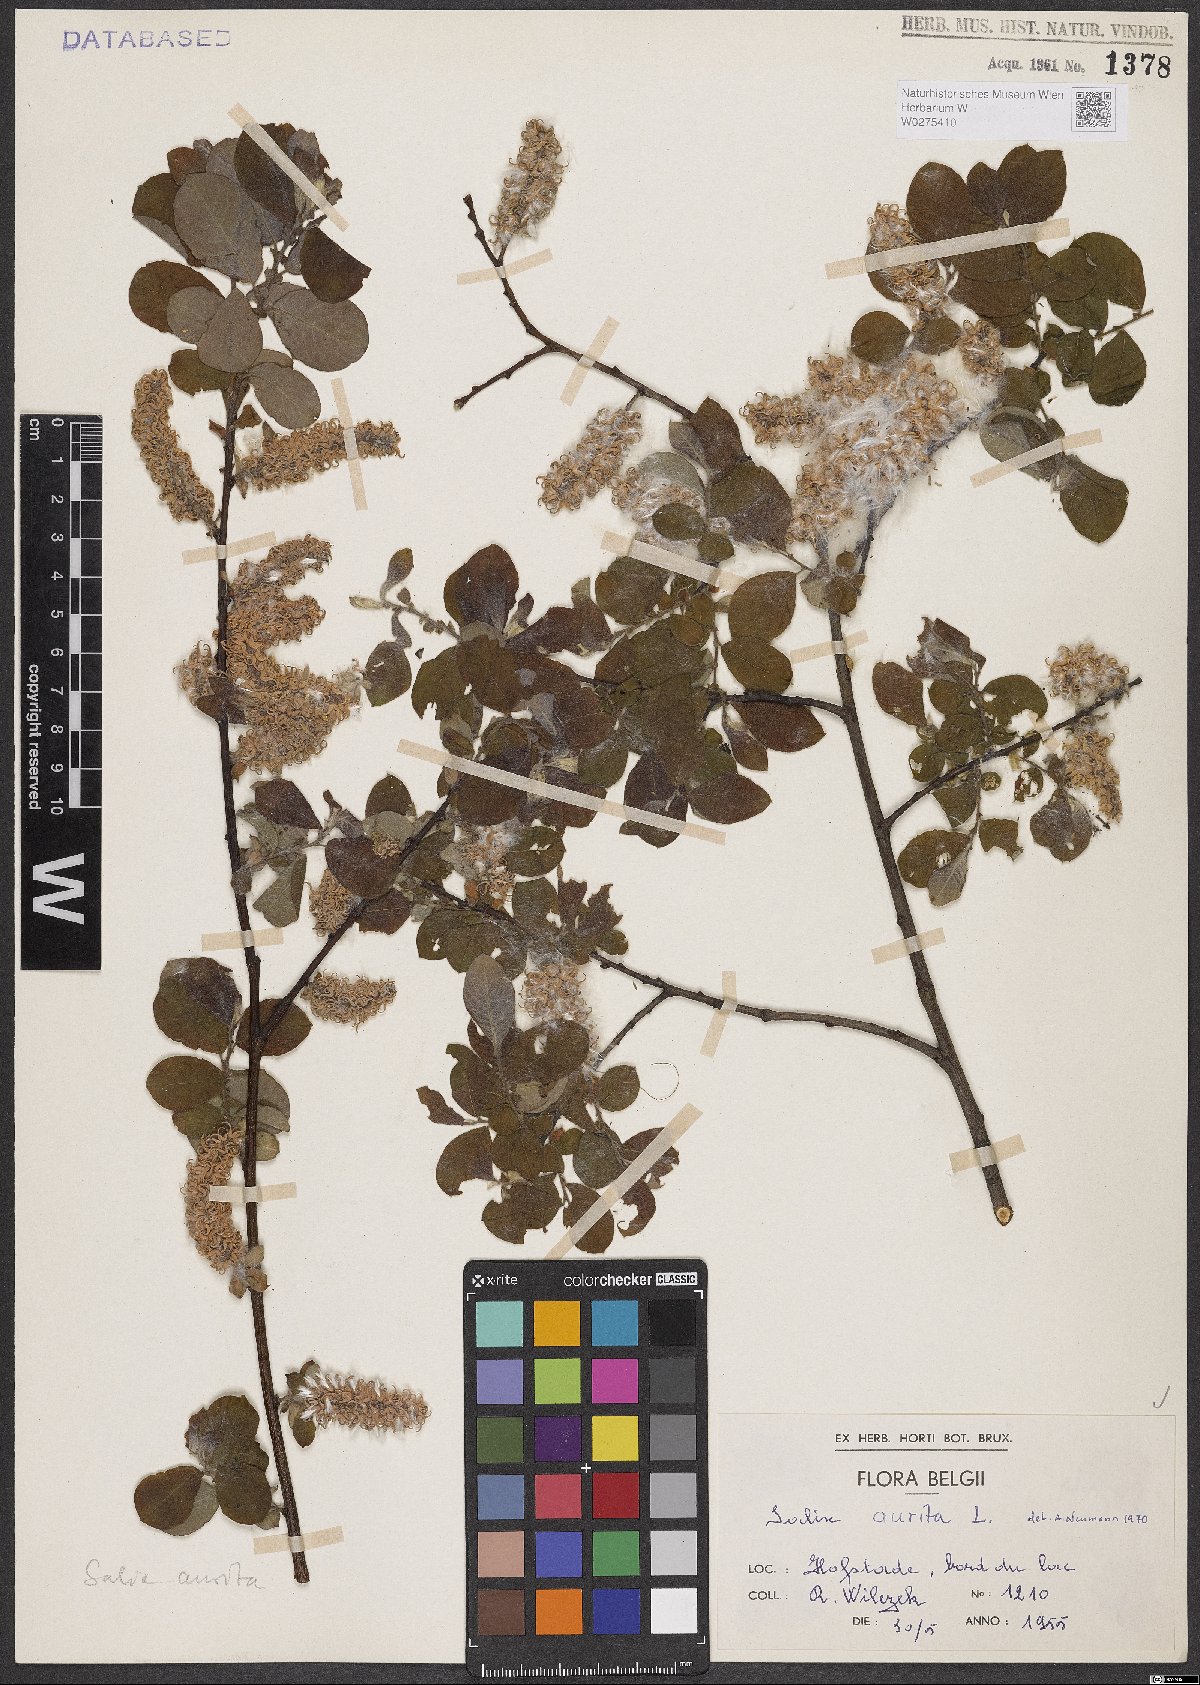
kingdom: Plantae
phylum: Tracheophyta
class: Magnoliopsida
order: Malpighiales
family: Salicaceae
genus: Salix
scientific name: Salix aurita
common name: Eared willow
